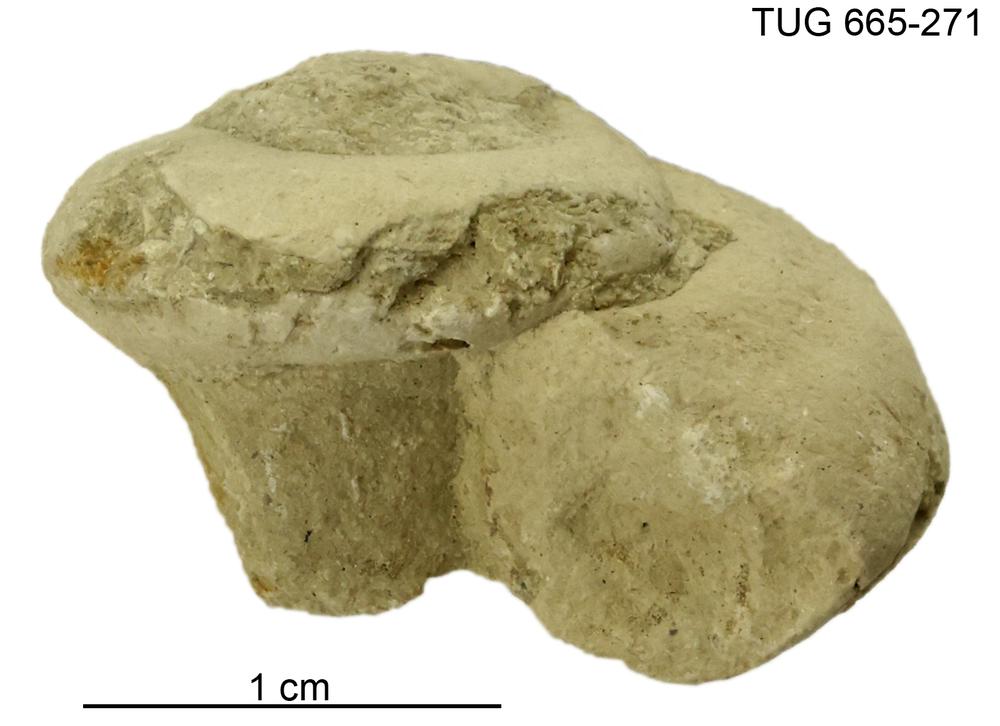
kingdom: Animalia
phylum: Mollusca
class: Gastropoda
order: Pleurotomariida
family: Planitrochidae
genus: Trochomphalus
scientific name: Trochomphalus Pycnomphalus borkholmiensis
